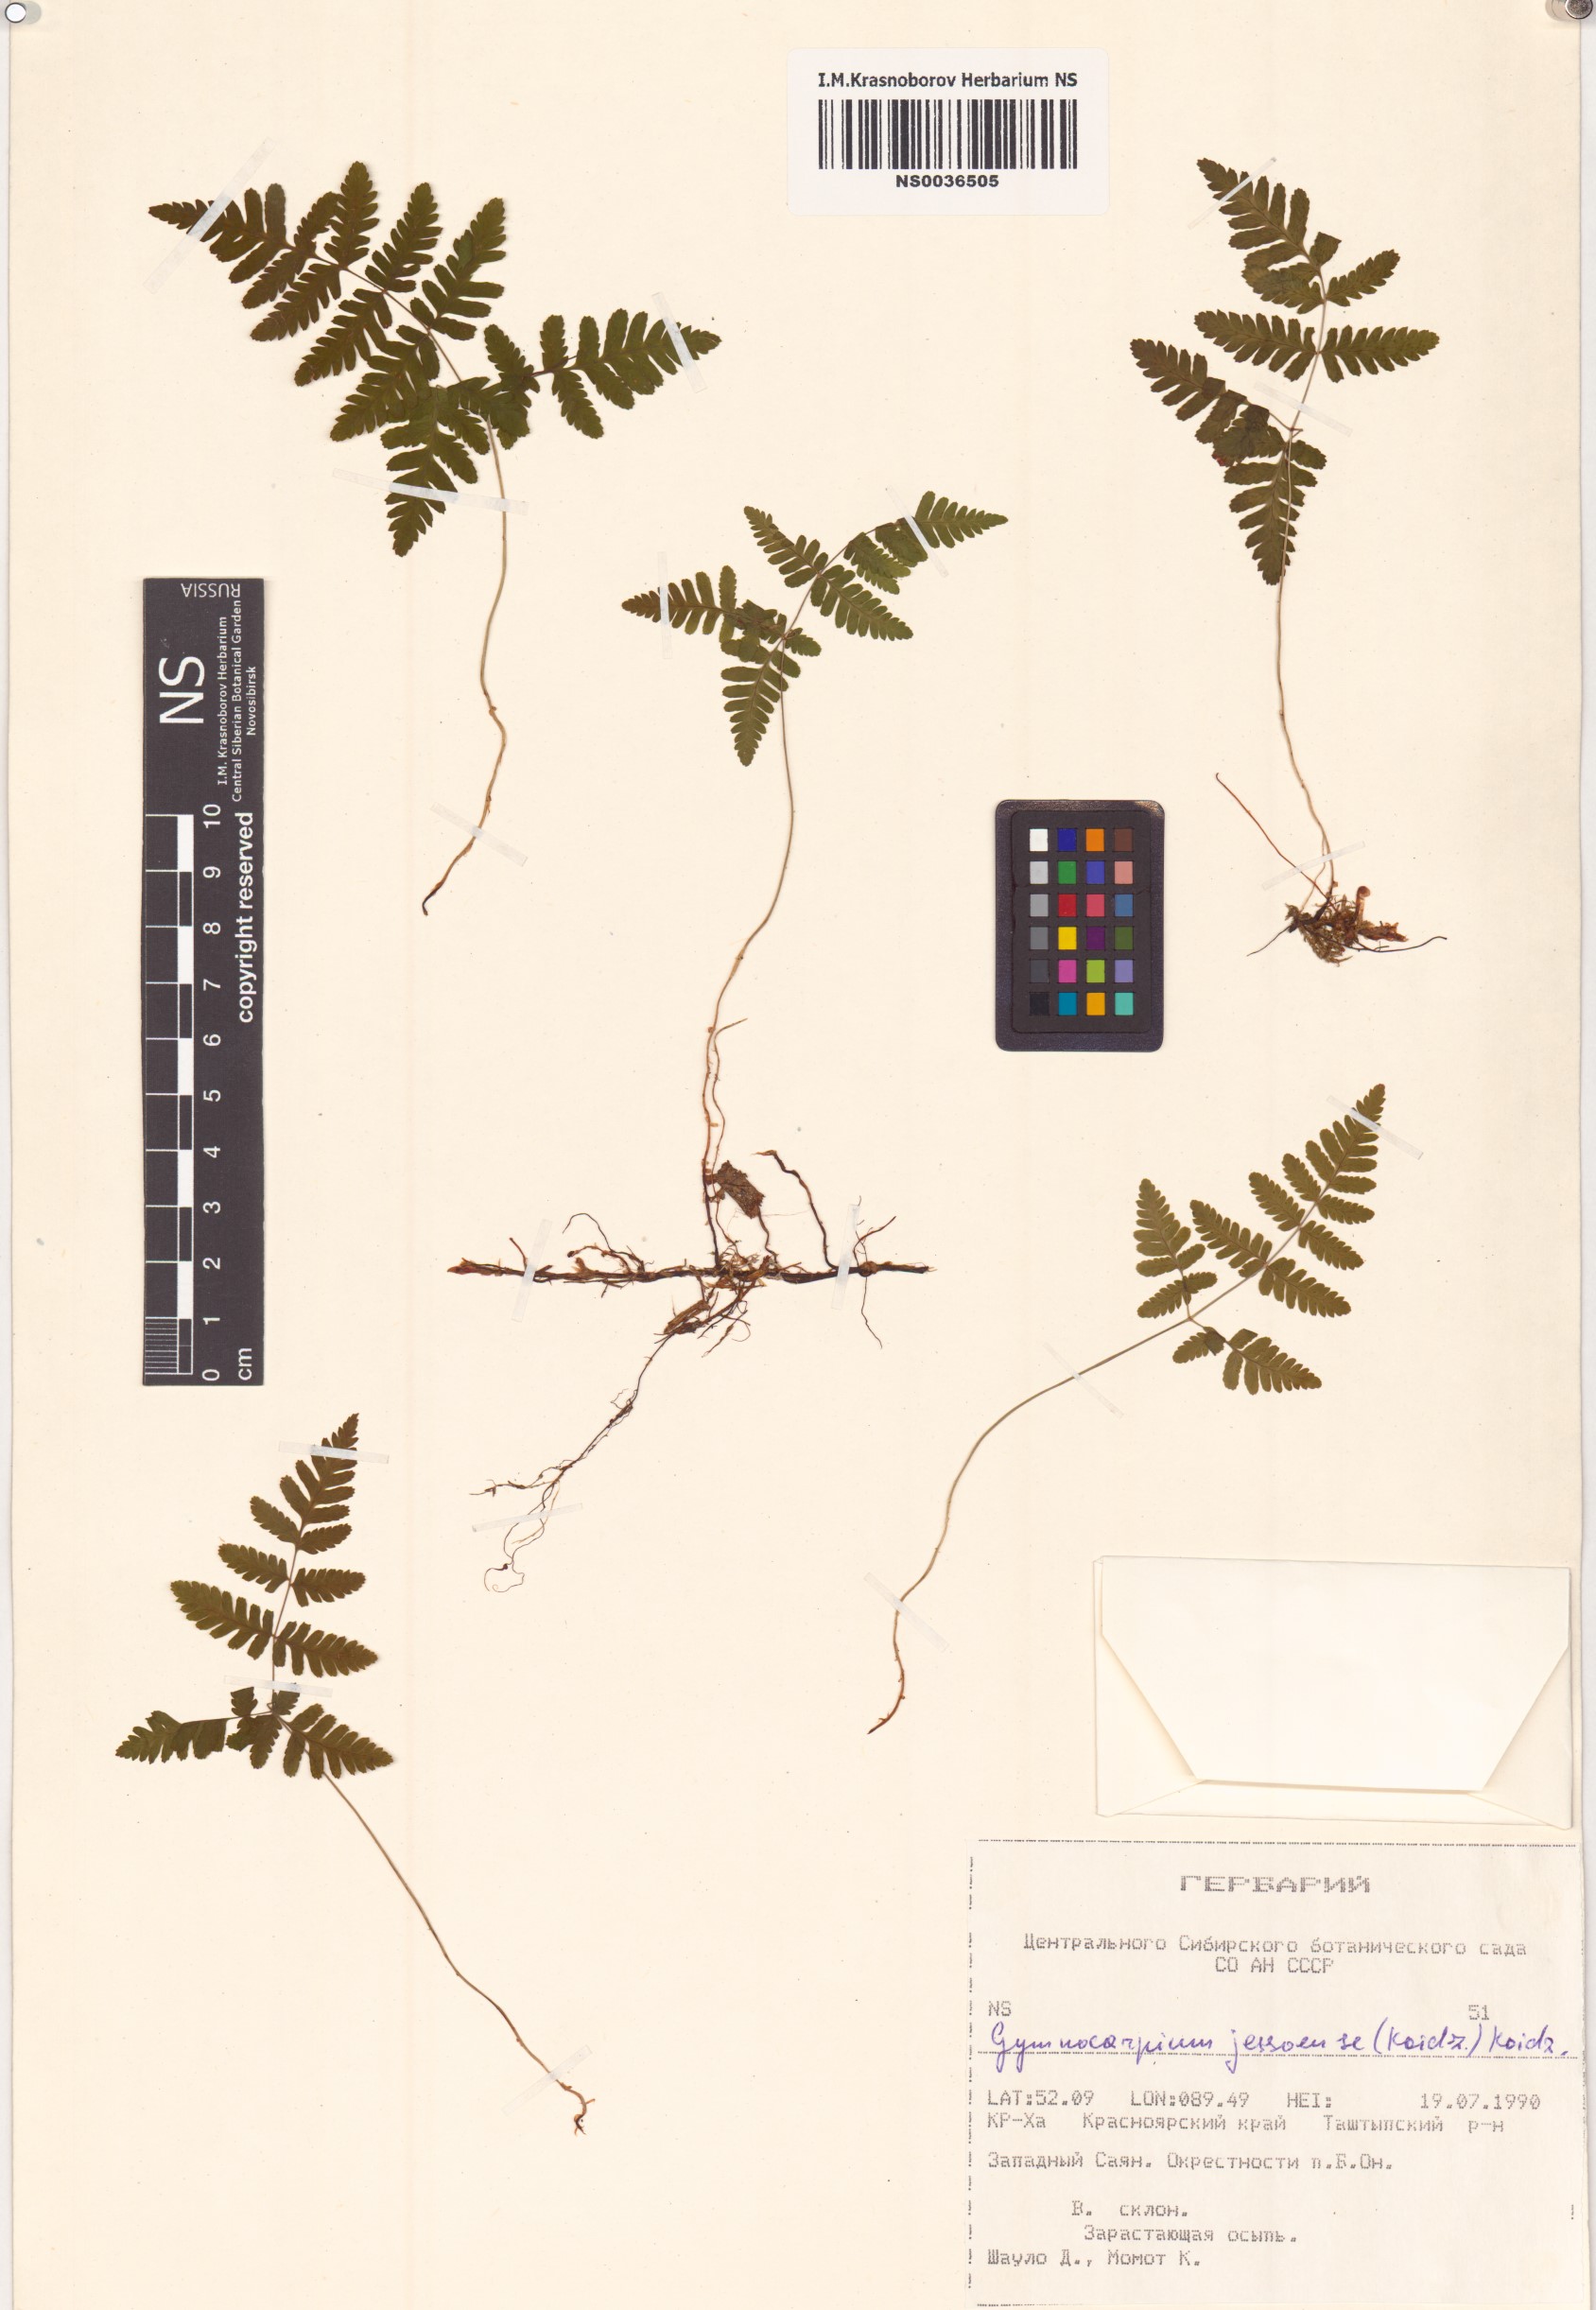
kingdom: Plantae
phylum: Tracheophyta
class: Polypodiopsida
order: Polypodiales
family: Cystopteridaceae
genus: Gymnocarpium
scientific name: Gymnocarpium jessoense
